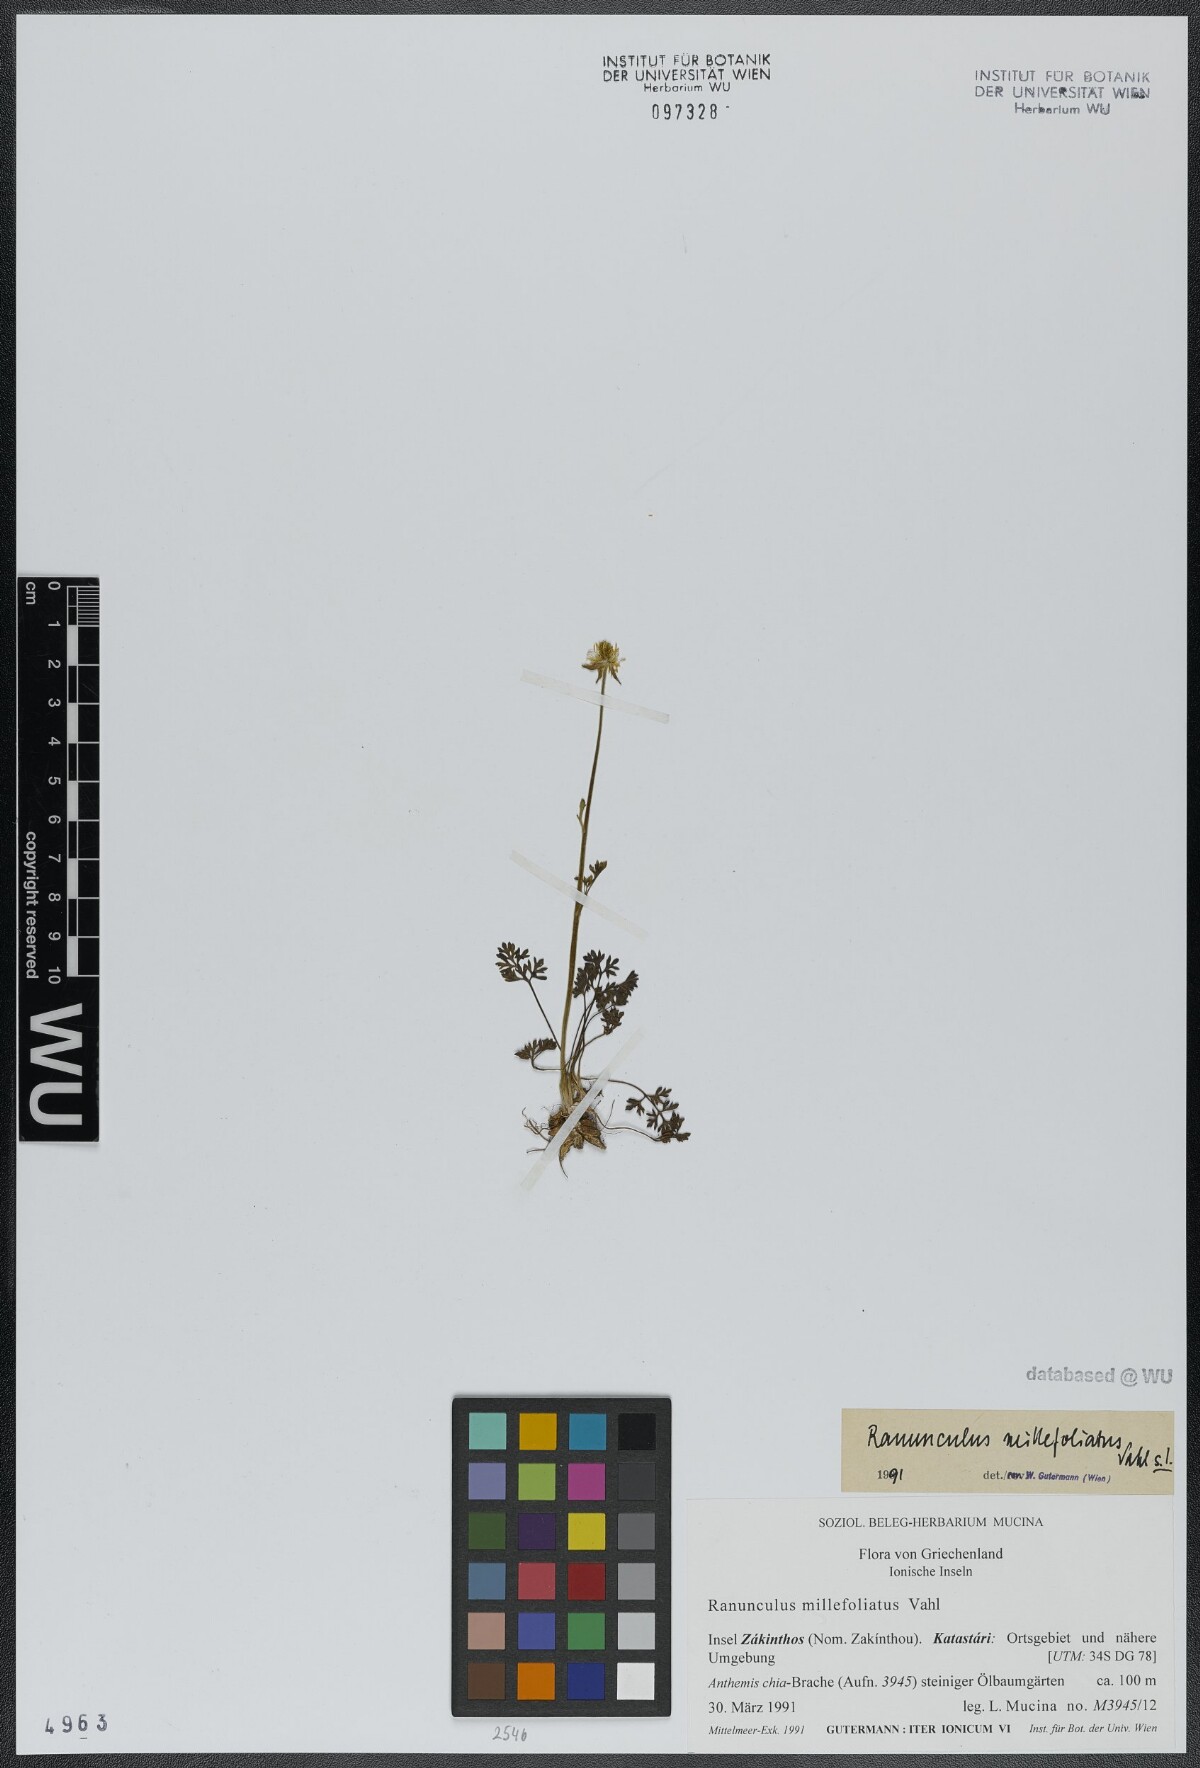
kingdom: Plantae
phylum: Tracheophyta
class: Magnoliopsida
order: Ranunculales
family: Ranunculaceae
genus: Ranunculus
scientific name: Ranunculus millefoliatus
